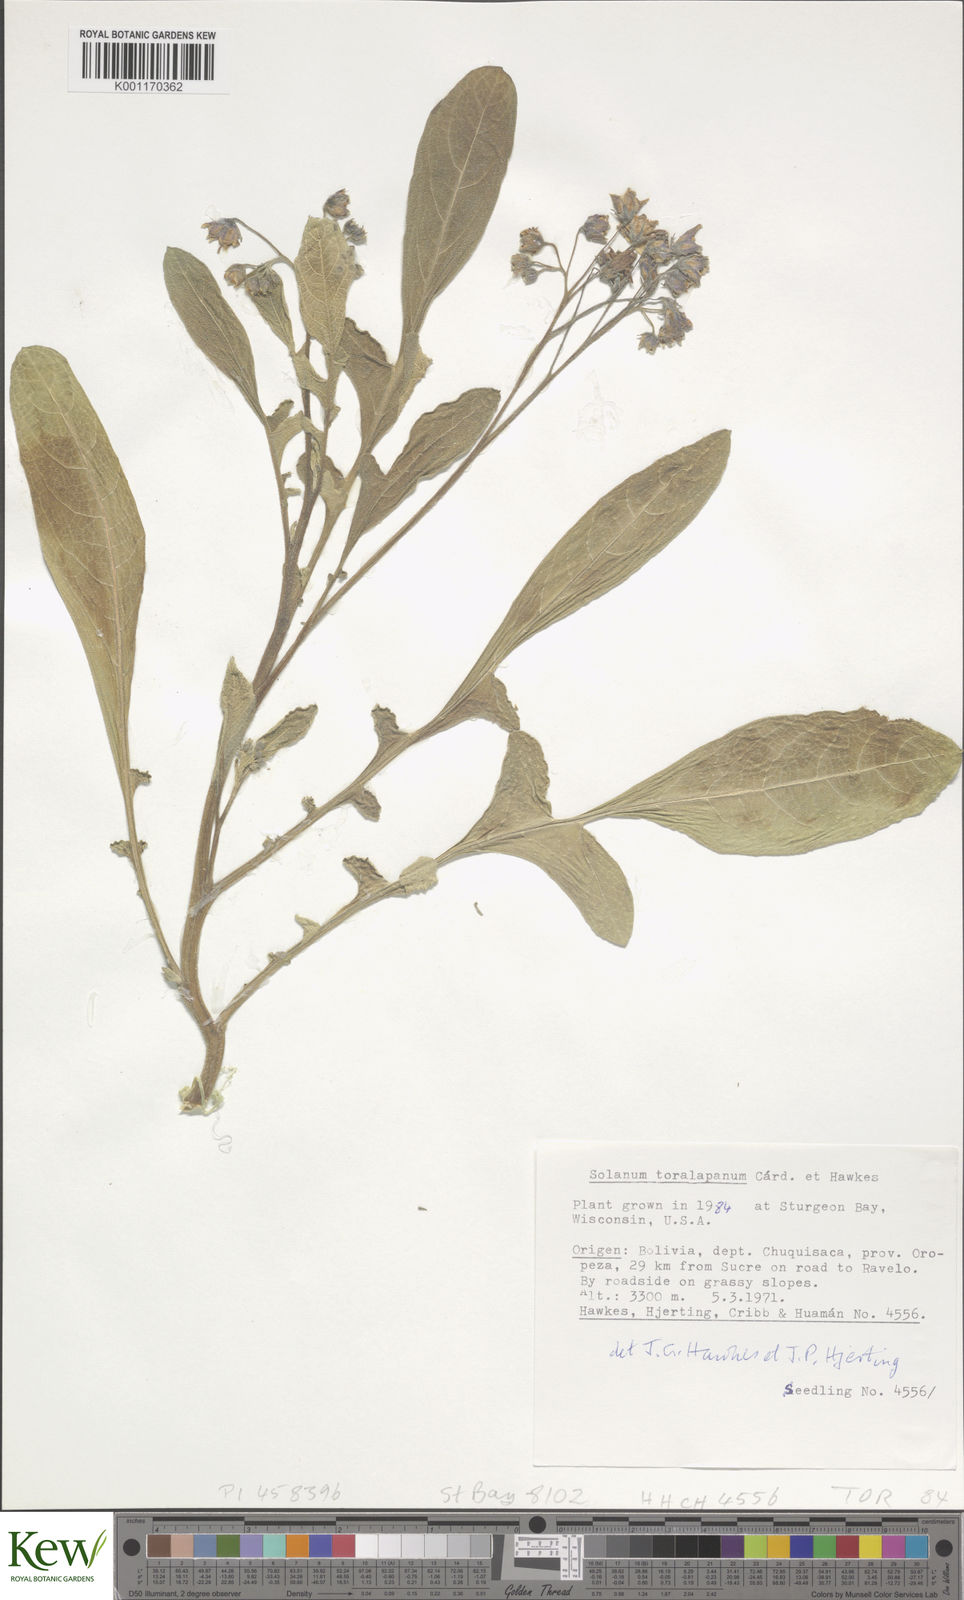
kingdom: Plantae
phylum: Tracheophyta
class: Magnoliopsida
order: Solanales
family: Solanaceae
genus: Solanum
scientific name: Solanum
